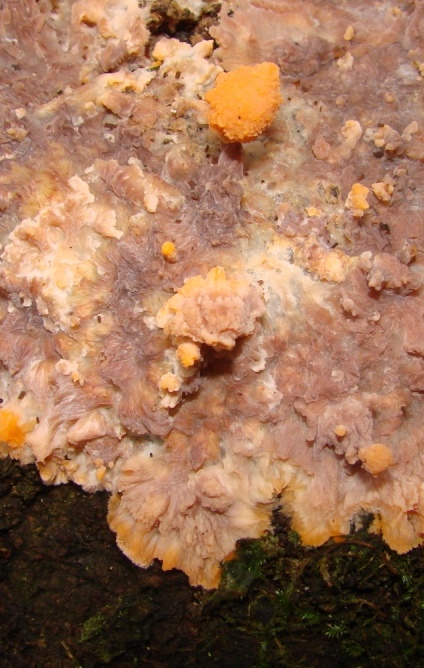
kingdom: Fungi
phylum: Basidiomycota
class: Agaricomycetes
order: Polyporales
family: Meruliaceae
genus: Phlebia
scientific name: Phlebia radiata
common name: stråle-åresvamp
